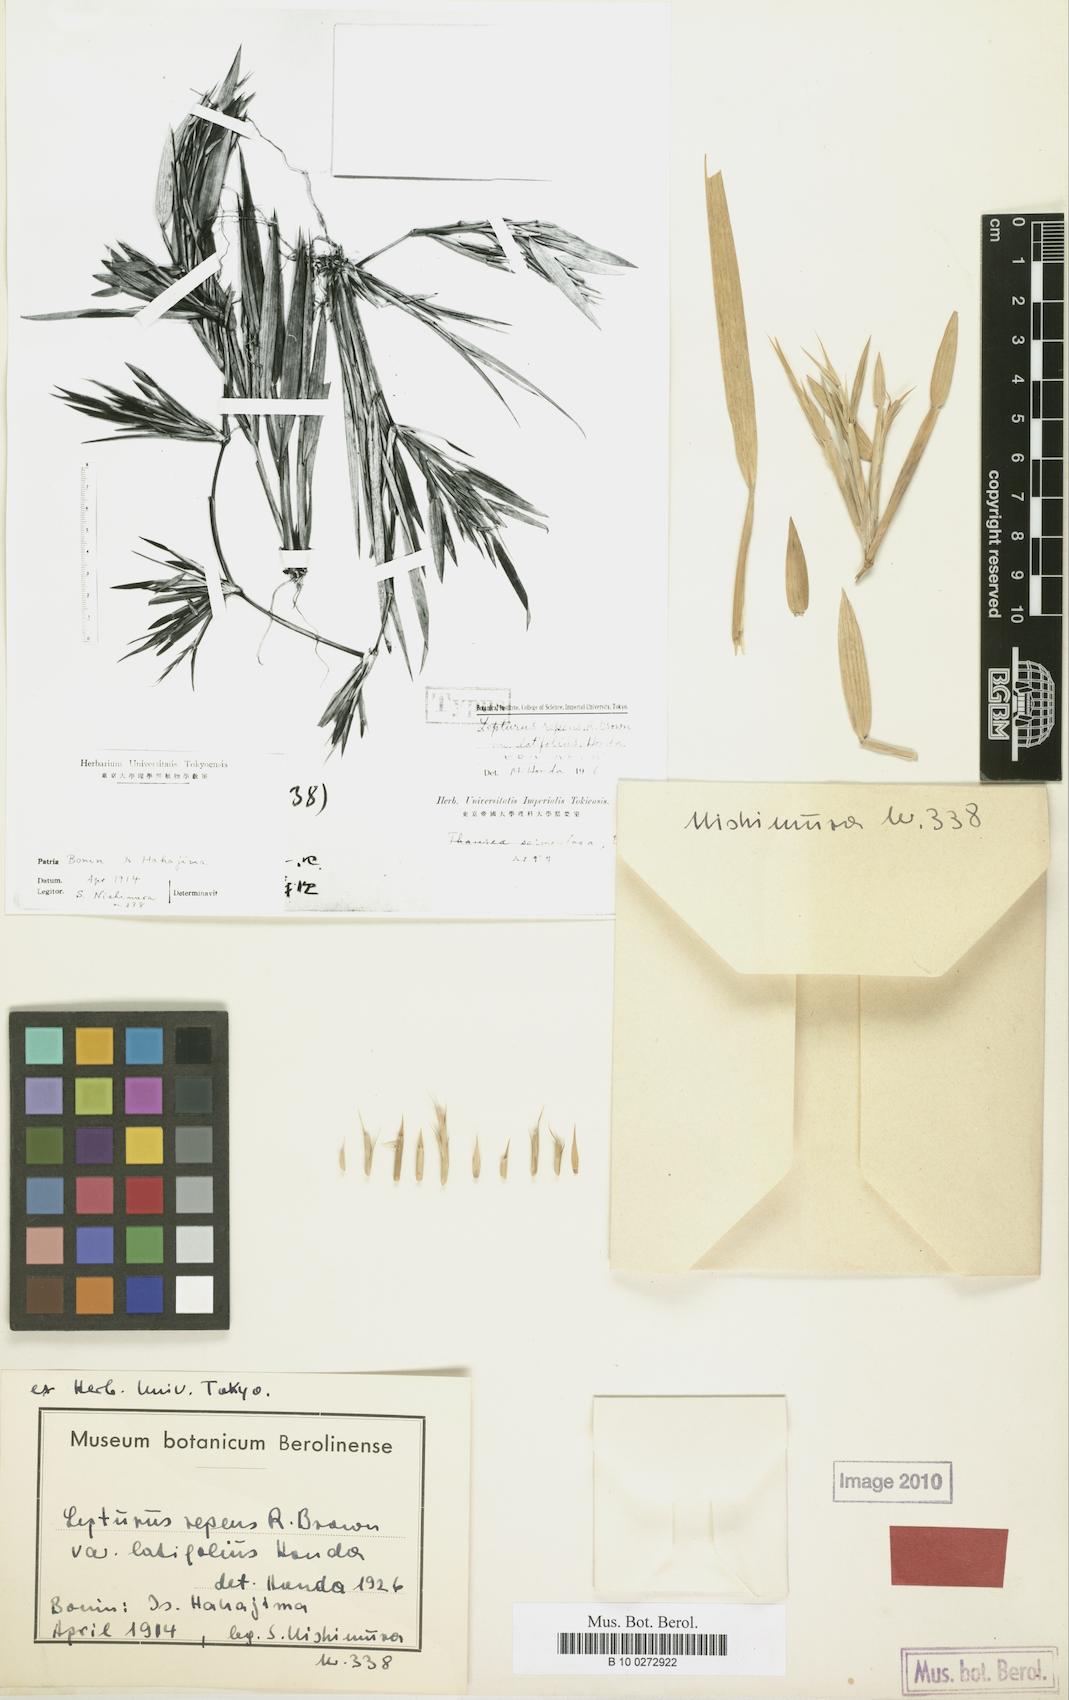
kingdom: Plantae
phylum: Tracheophyta
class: Liliopsida
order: Poales
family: Poaceae
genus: Lepturus
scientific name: Lepturus repens
